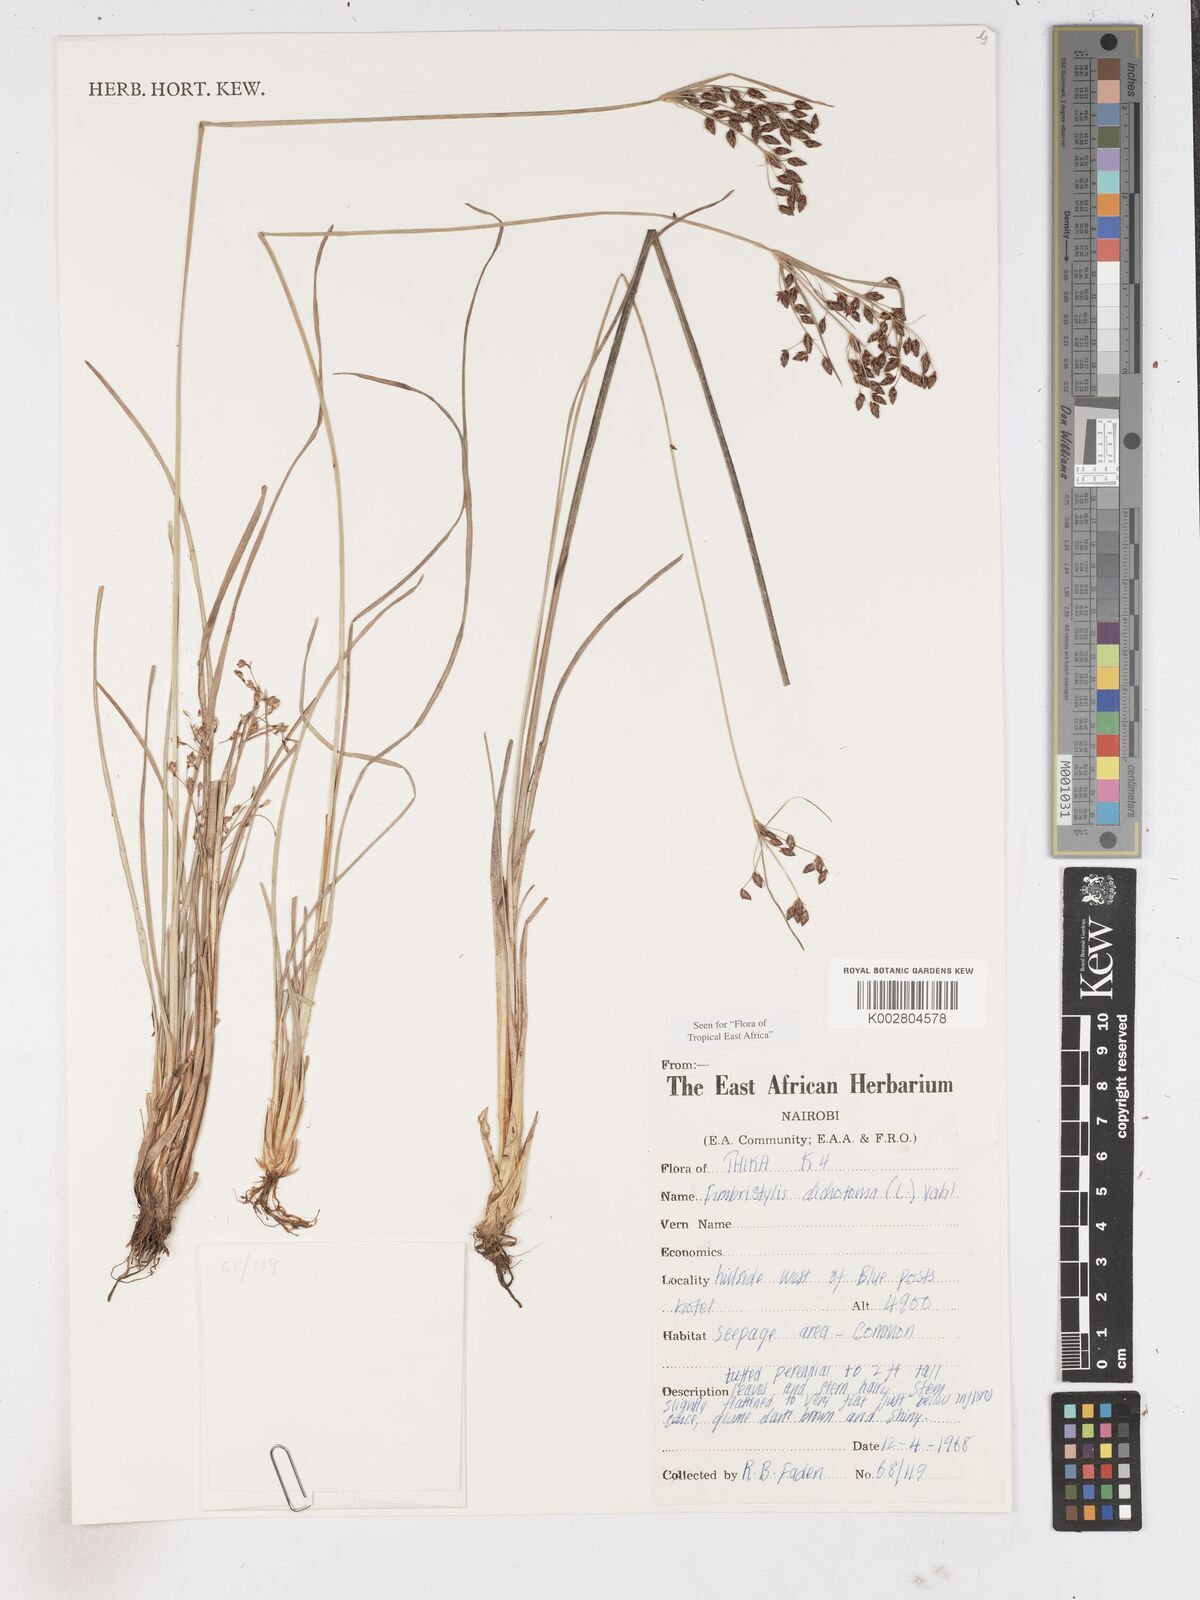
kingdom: Plantae
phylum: Tracheophyta
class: Liliopsida
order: Poales
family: Cyperaceae
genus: Fimbristylis
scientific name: Fimbristylis dichotoma
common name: Forked fimbry
